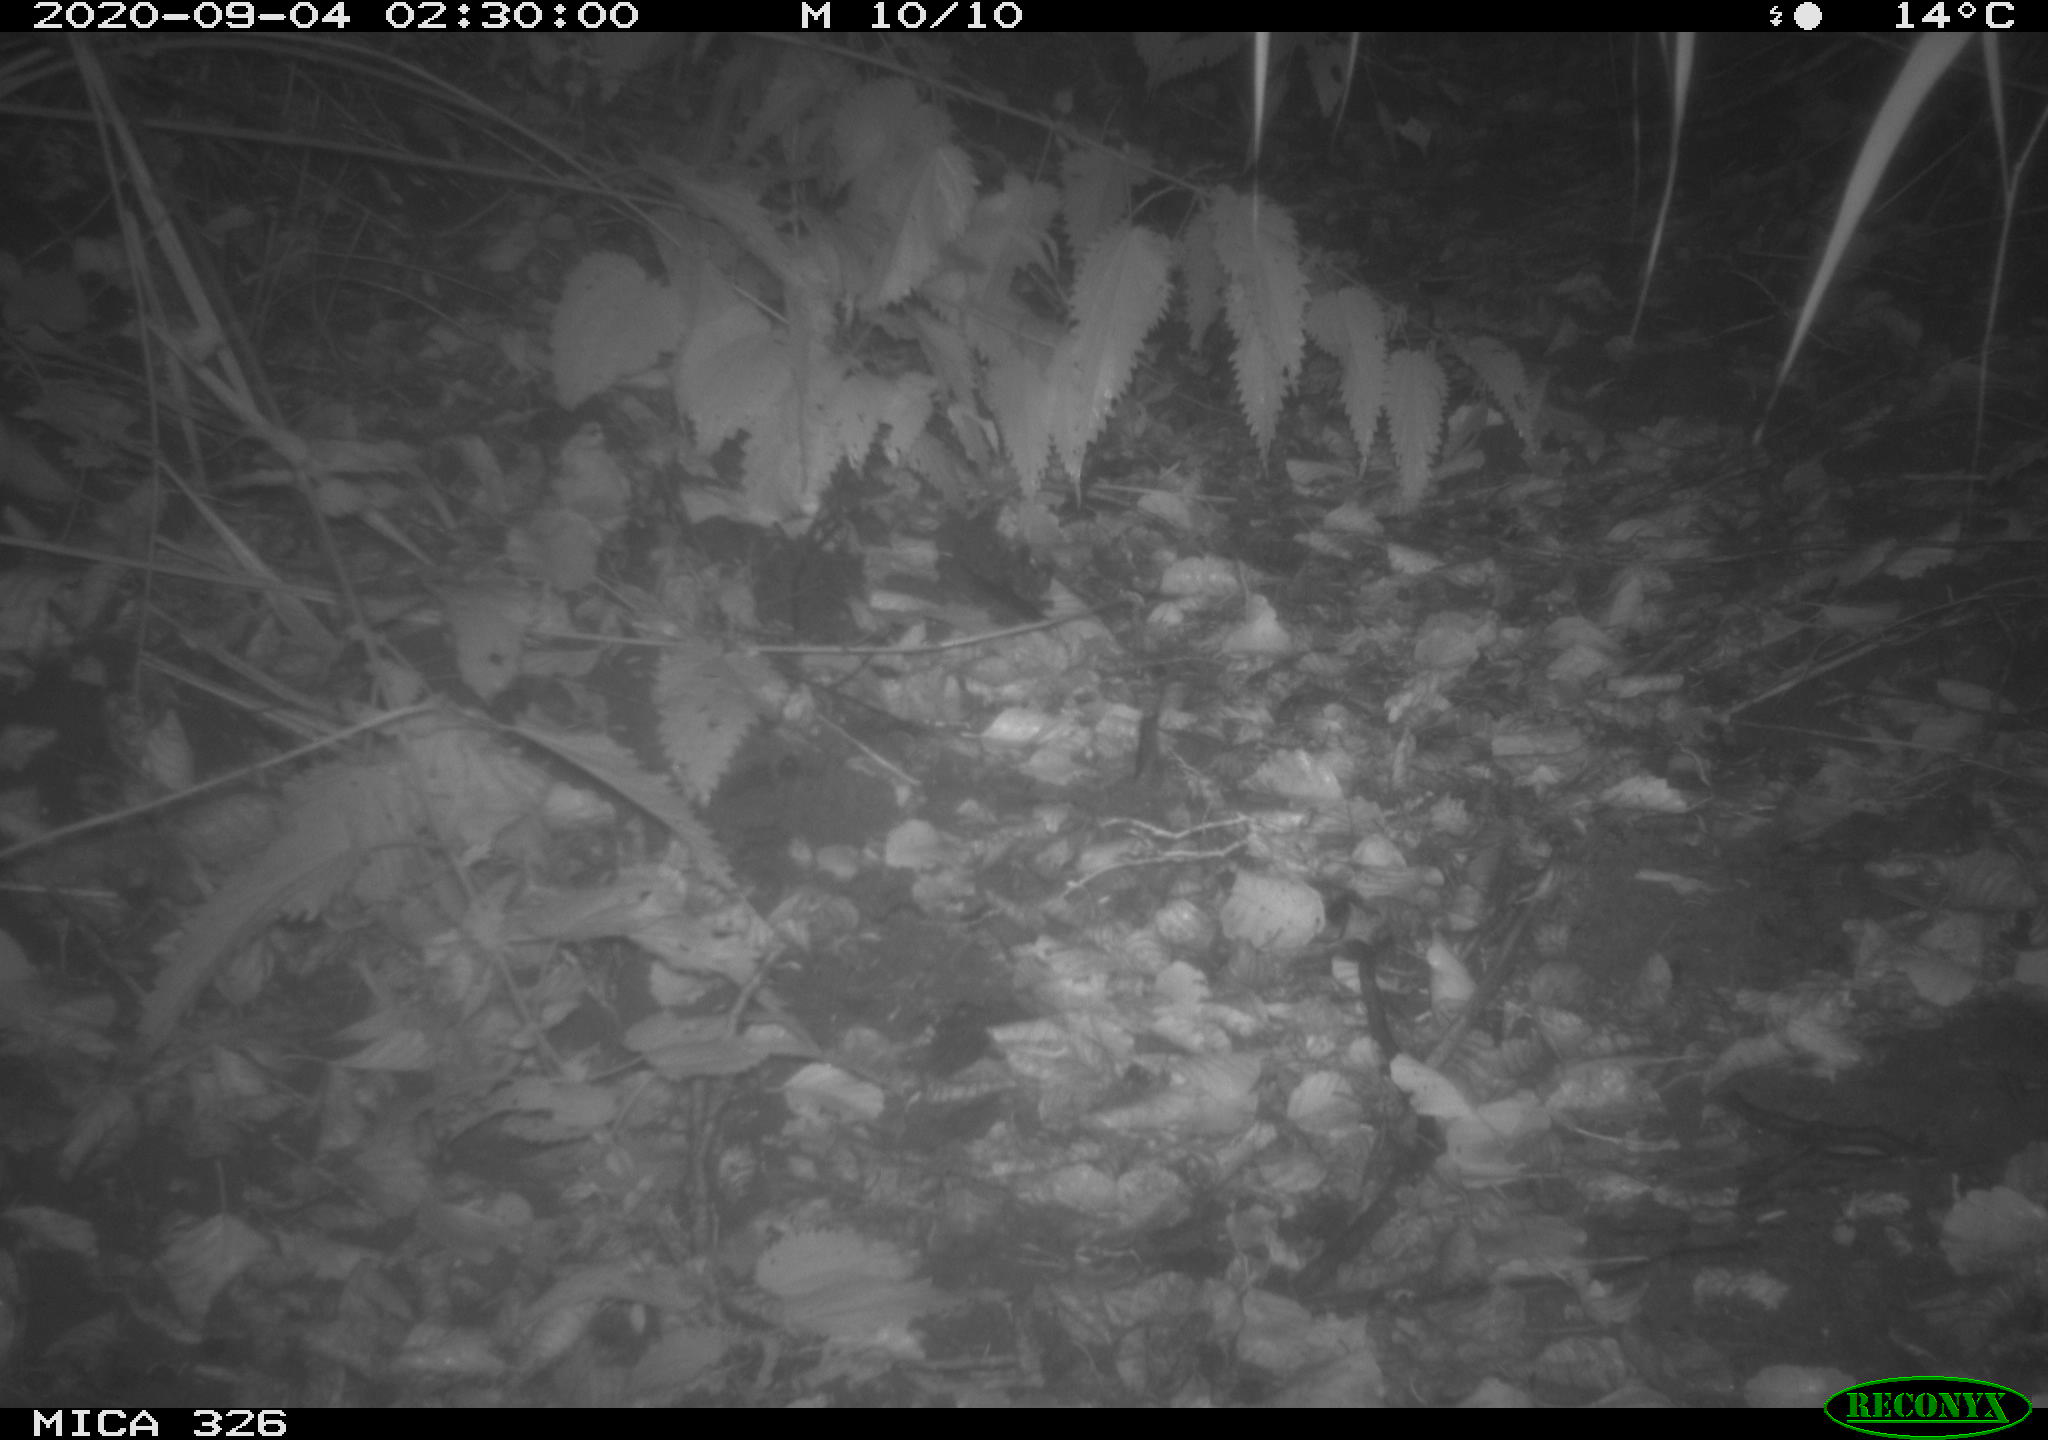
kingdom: Animalia
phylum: Chordata
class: Mammalia
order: Carnivora
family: Mustelidae
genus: Lutra
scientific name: Lutra lutra
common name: European otter
